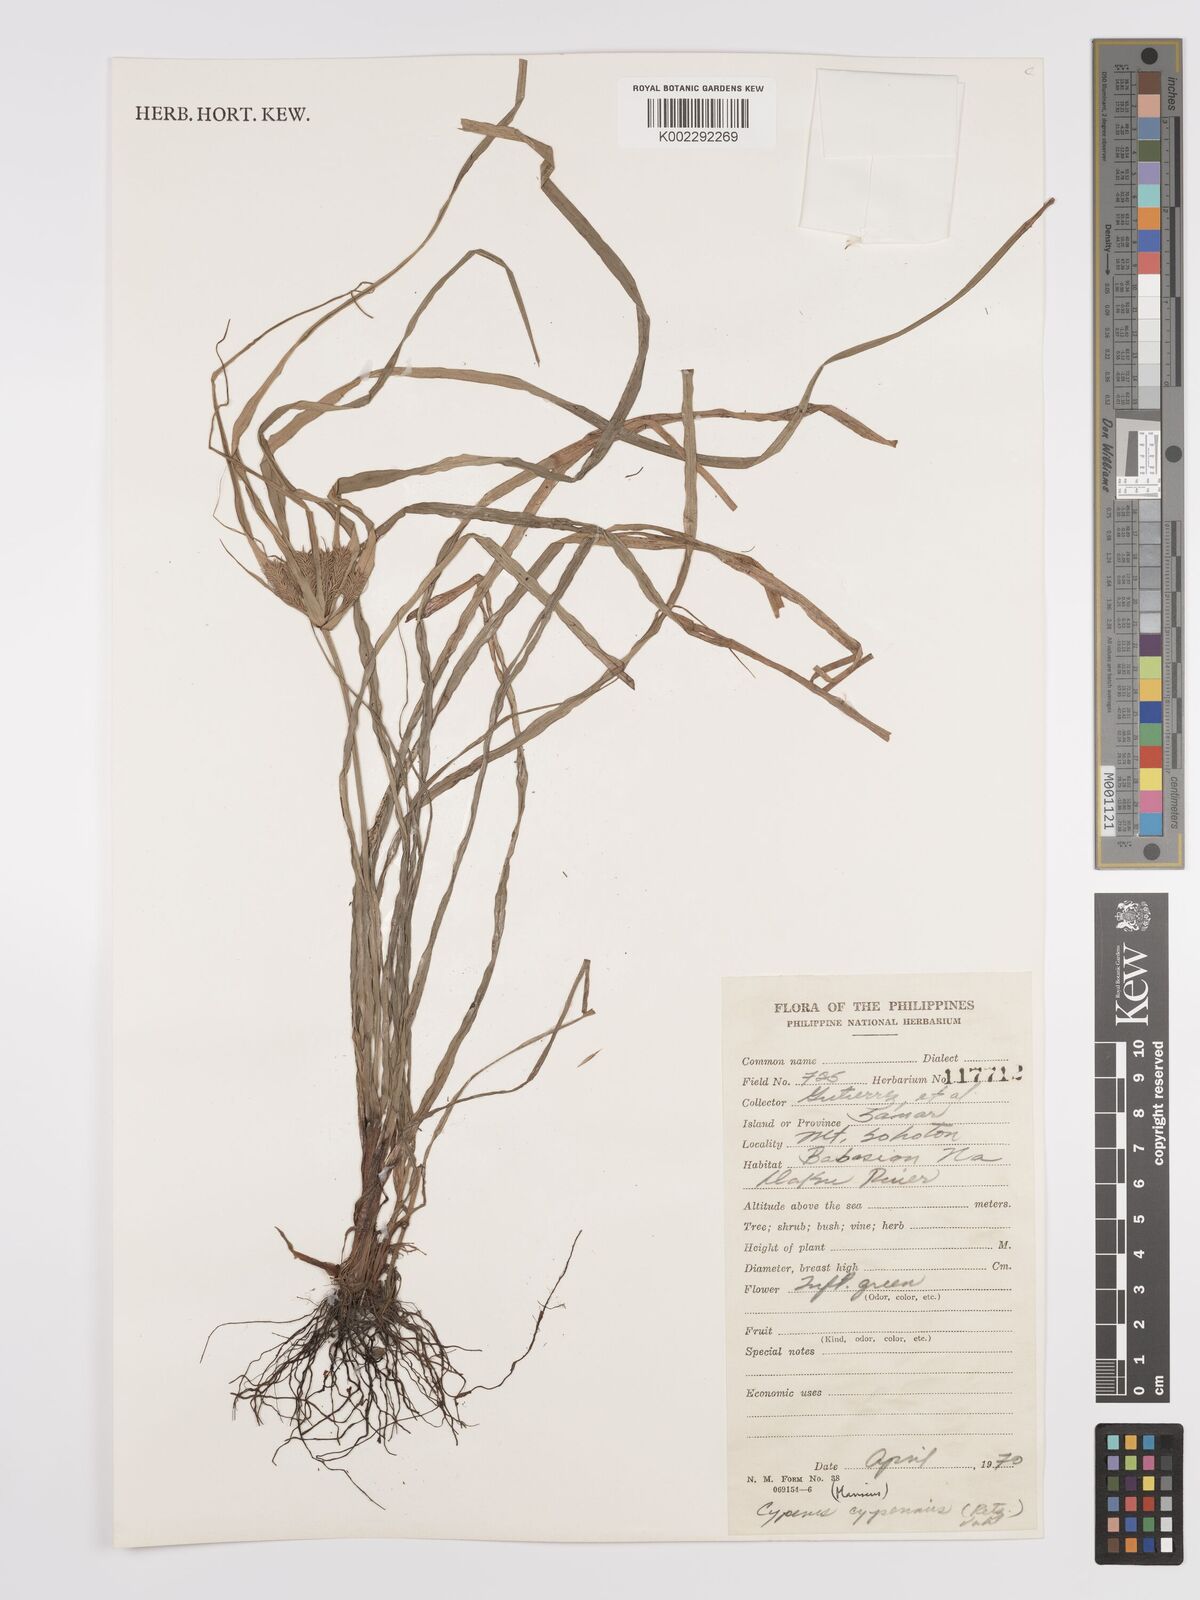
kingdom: Plantae
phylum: Tracheophyta
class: Liliopsida
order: Poales
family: Cyperaceae
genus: Cyperus
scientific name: Cyperus cyperinus
